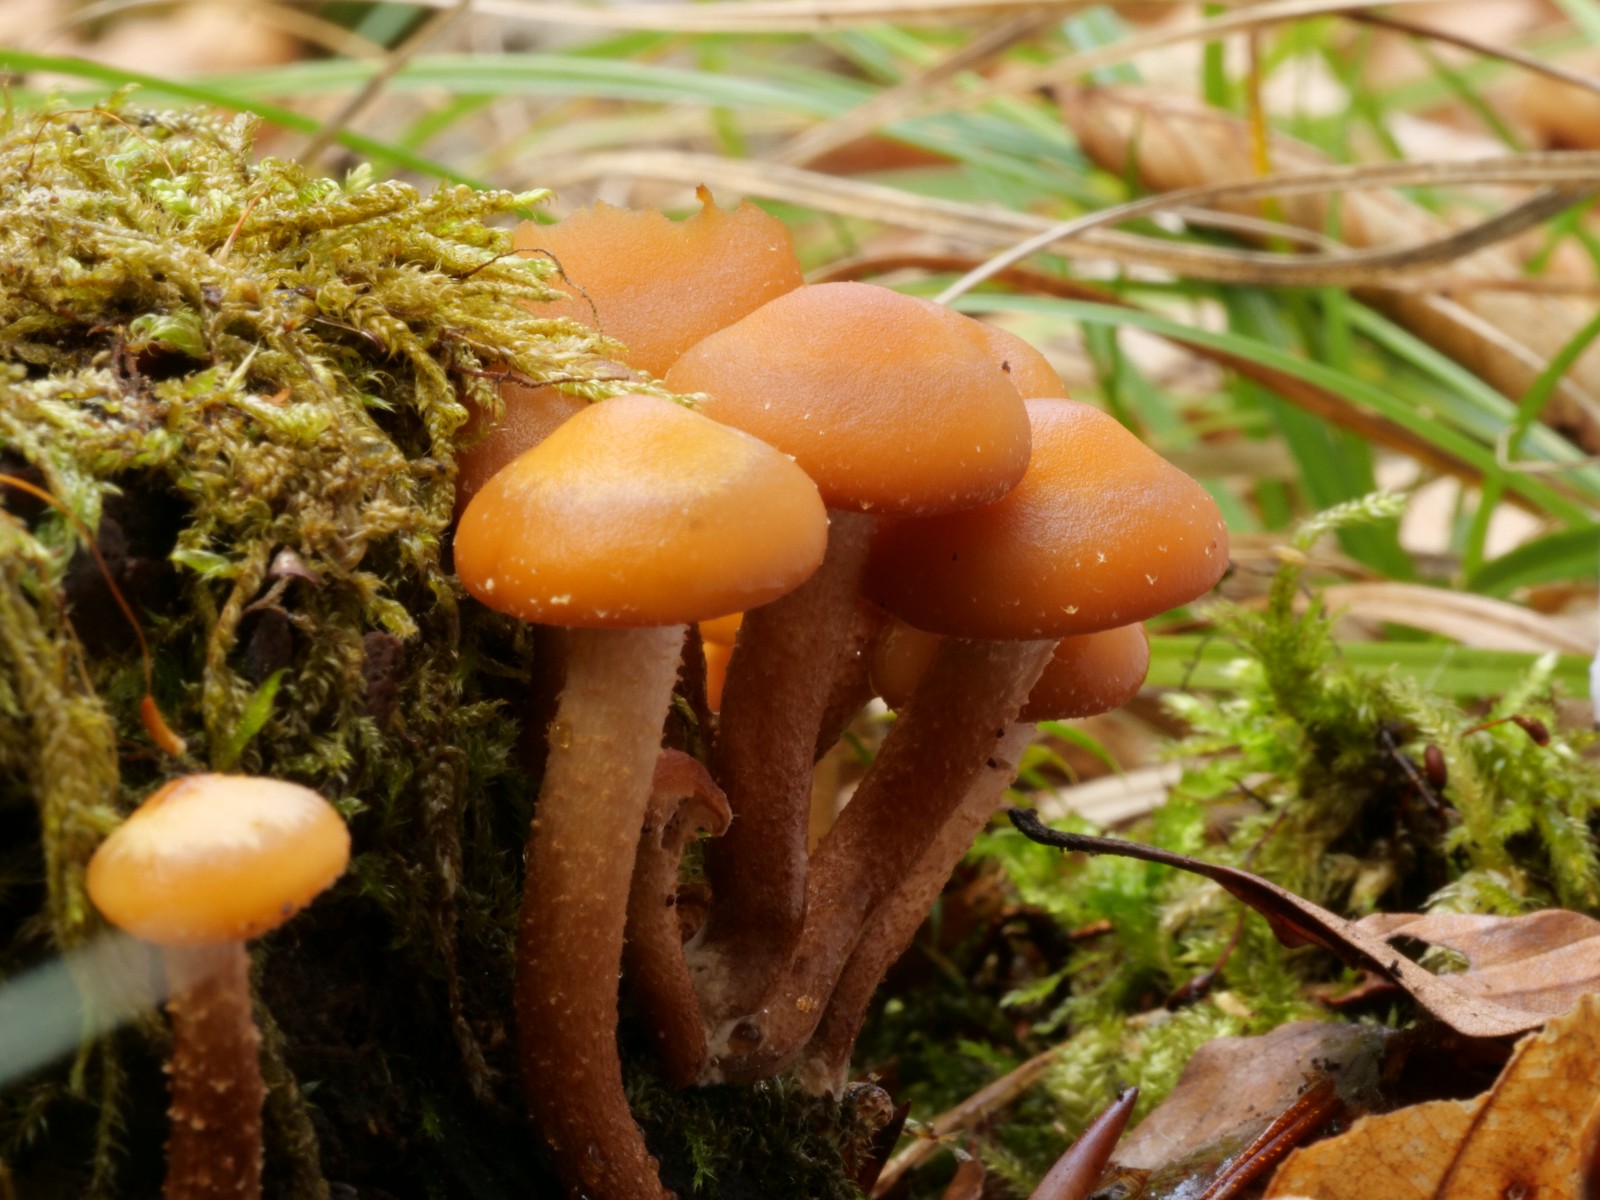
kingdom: Fungi
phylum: Basidiomycota
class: Agaricomycetes
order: Agaricales
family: Strophariaceae
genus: Kuehneromyces
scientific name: Kuehneromyces mutabilis
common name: foranderlig skælhat
